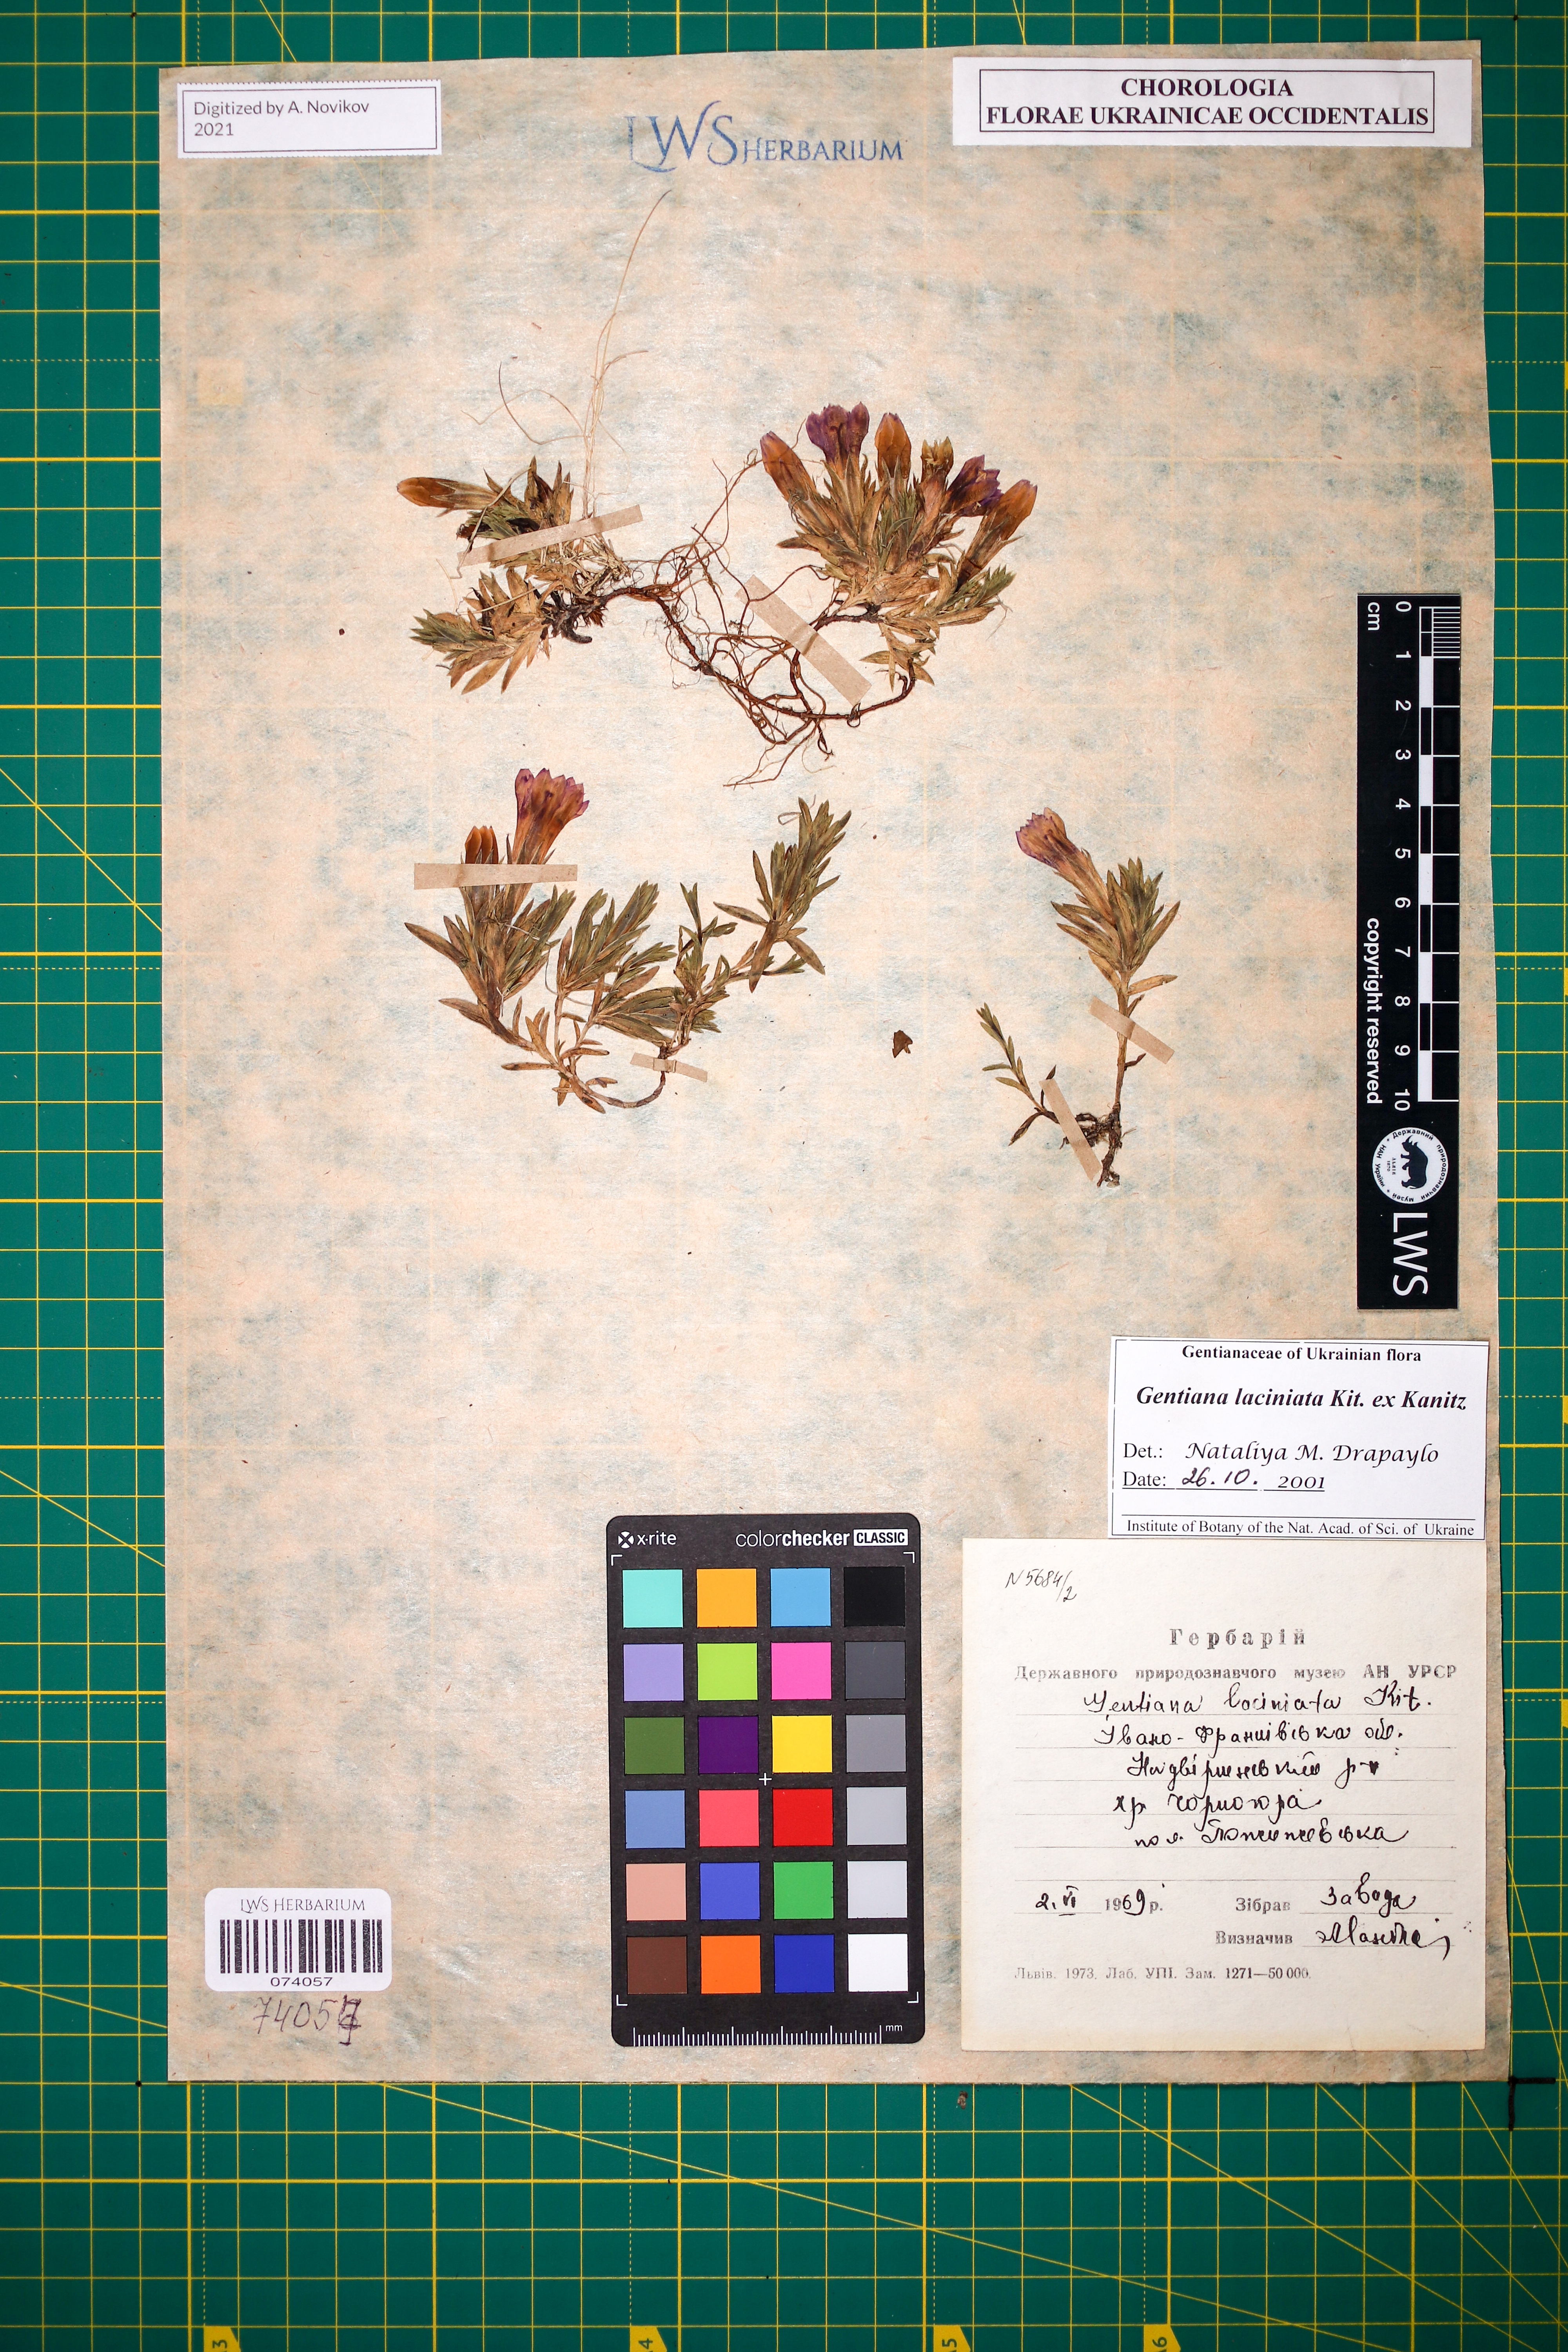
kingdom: Plantae
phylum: Tracheophyta
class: Magnoliopsida
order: Gentianales
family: Gentianaceae
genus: Gentiana
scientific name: Gentiana laciniata
